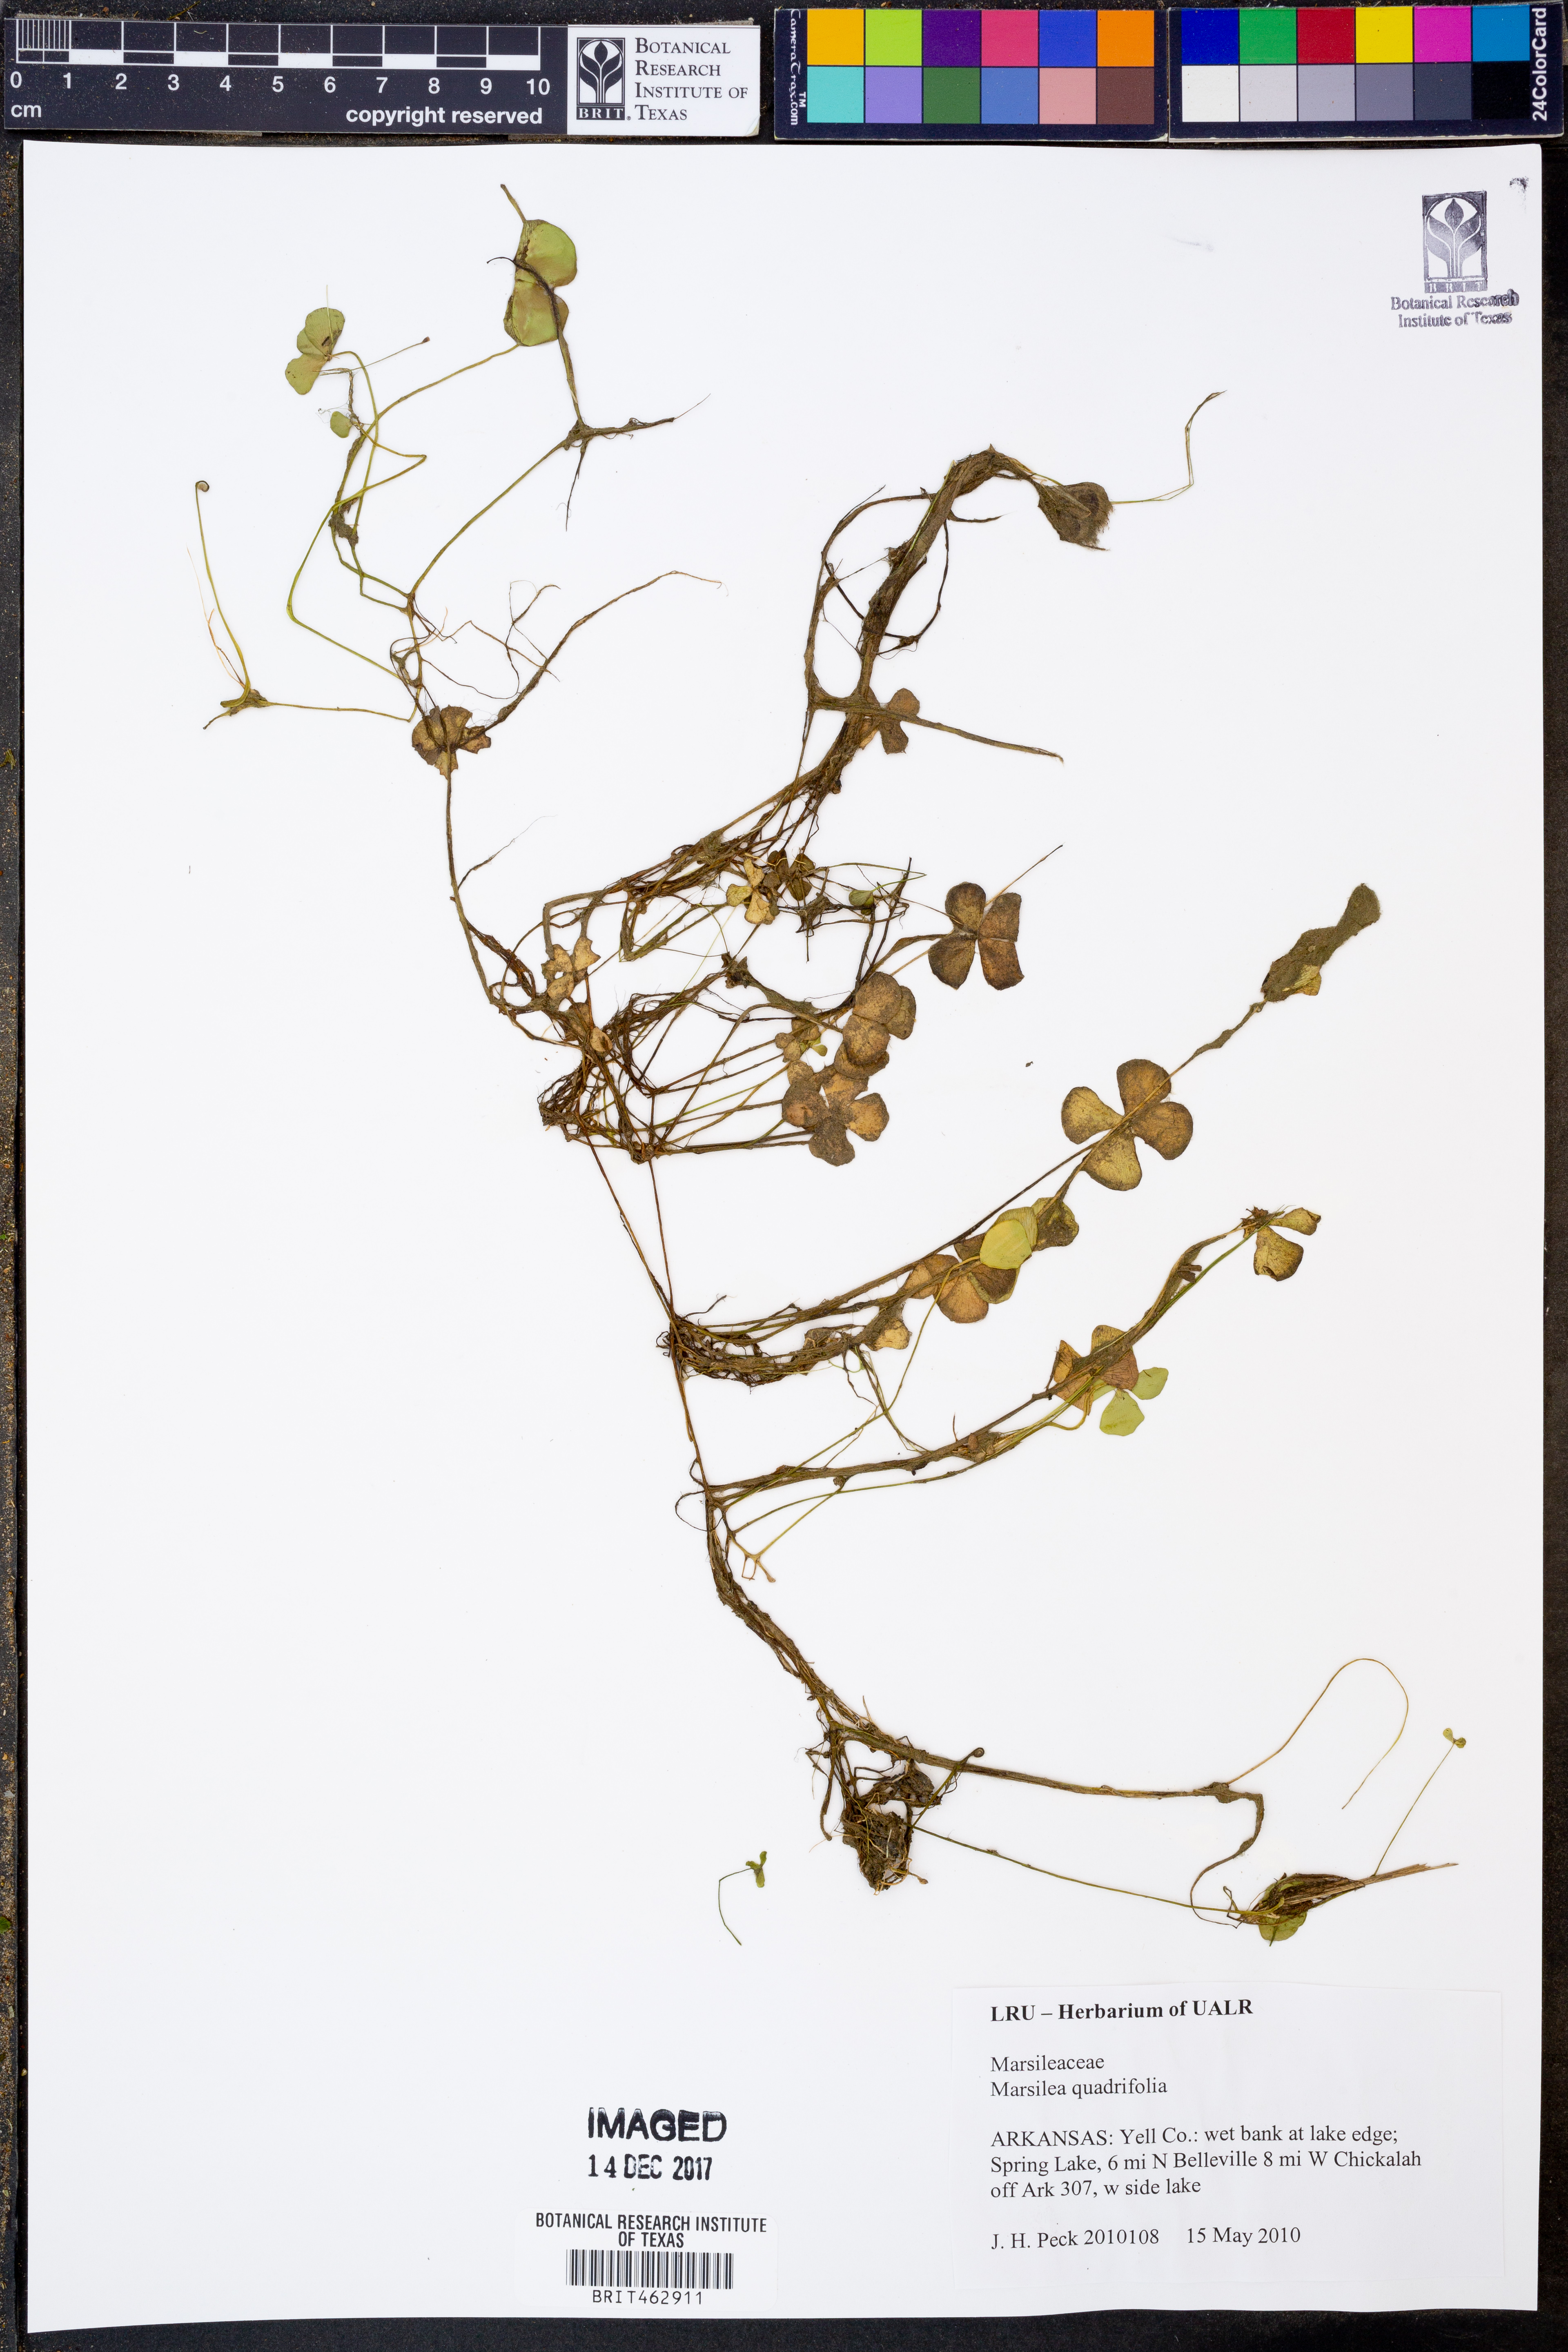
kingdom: Plantae
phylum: Tracheophyta
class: Polypodiopsida
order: Salviniales
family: Marsileaceae
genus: Marsilea
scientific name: Marsilea quadrifolia
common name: Water shamrock
